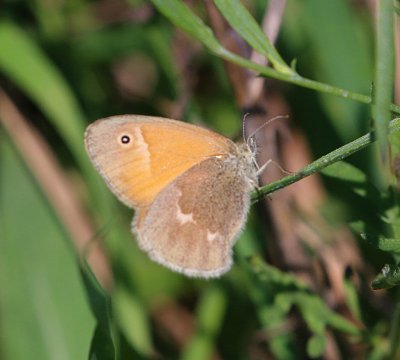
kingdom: Animalia
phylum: Arthropoda
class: Insecta
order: Lepidoptera
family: Nymphalidae
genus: Coenonympha
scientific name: Coenonympha tullia
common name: Large Heath
